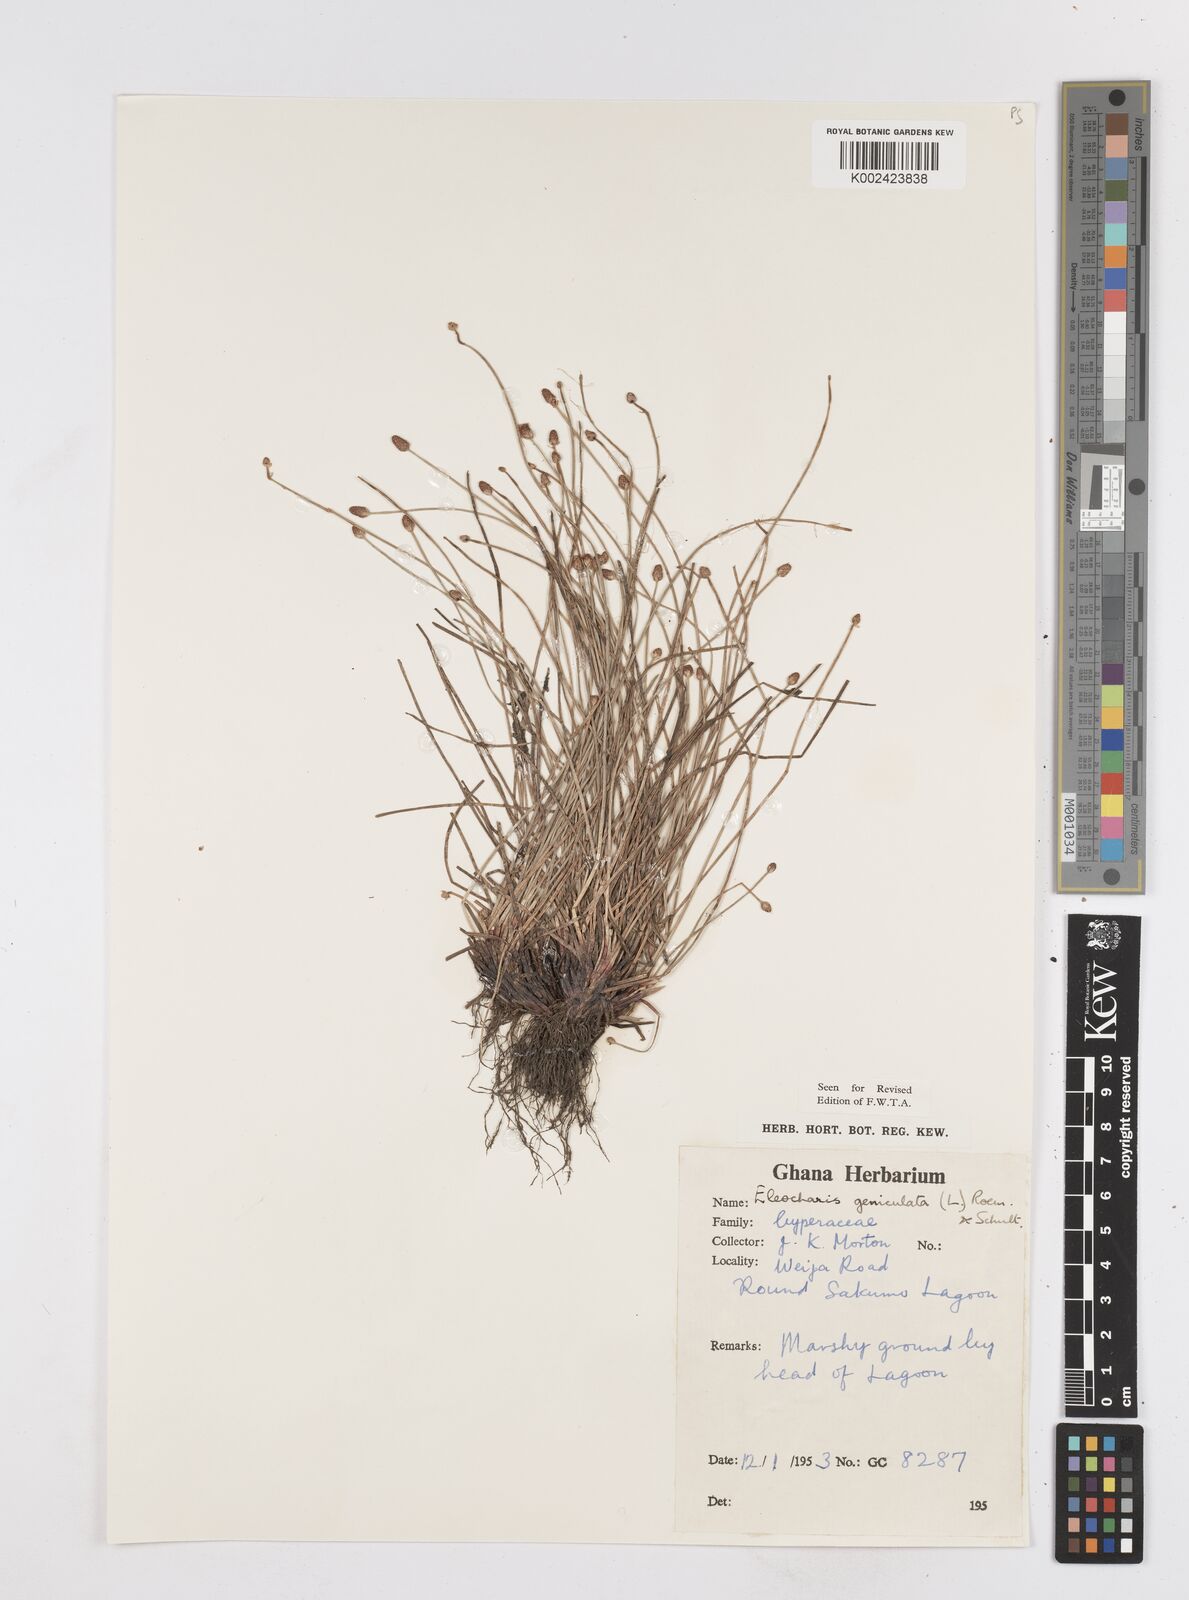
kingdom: Plantae
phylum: Tracheophyta
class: Liliopsida
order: Poales
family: Cyperaceae
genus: Eleocharis
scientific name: Eleocharis geniculata
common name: Canada spikesedge
